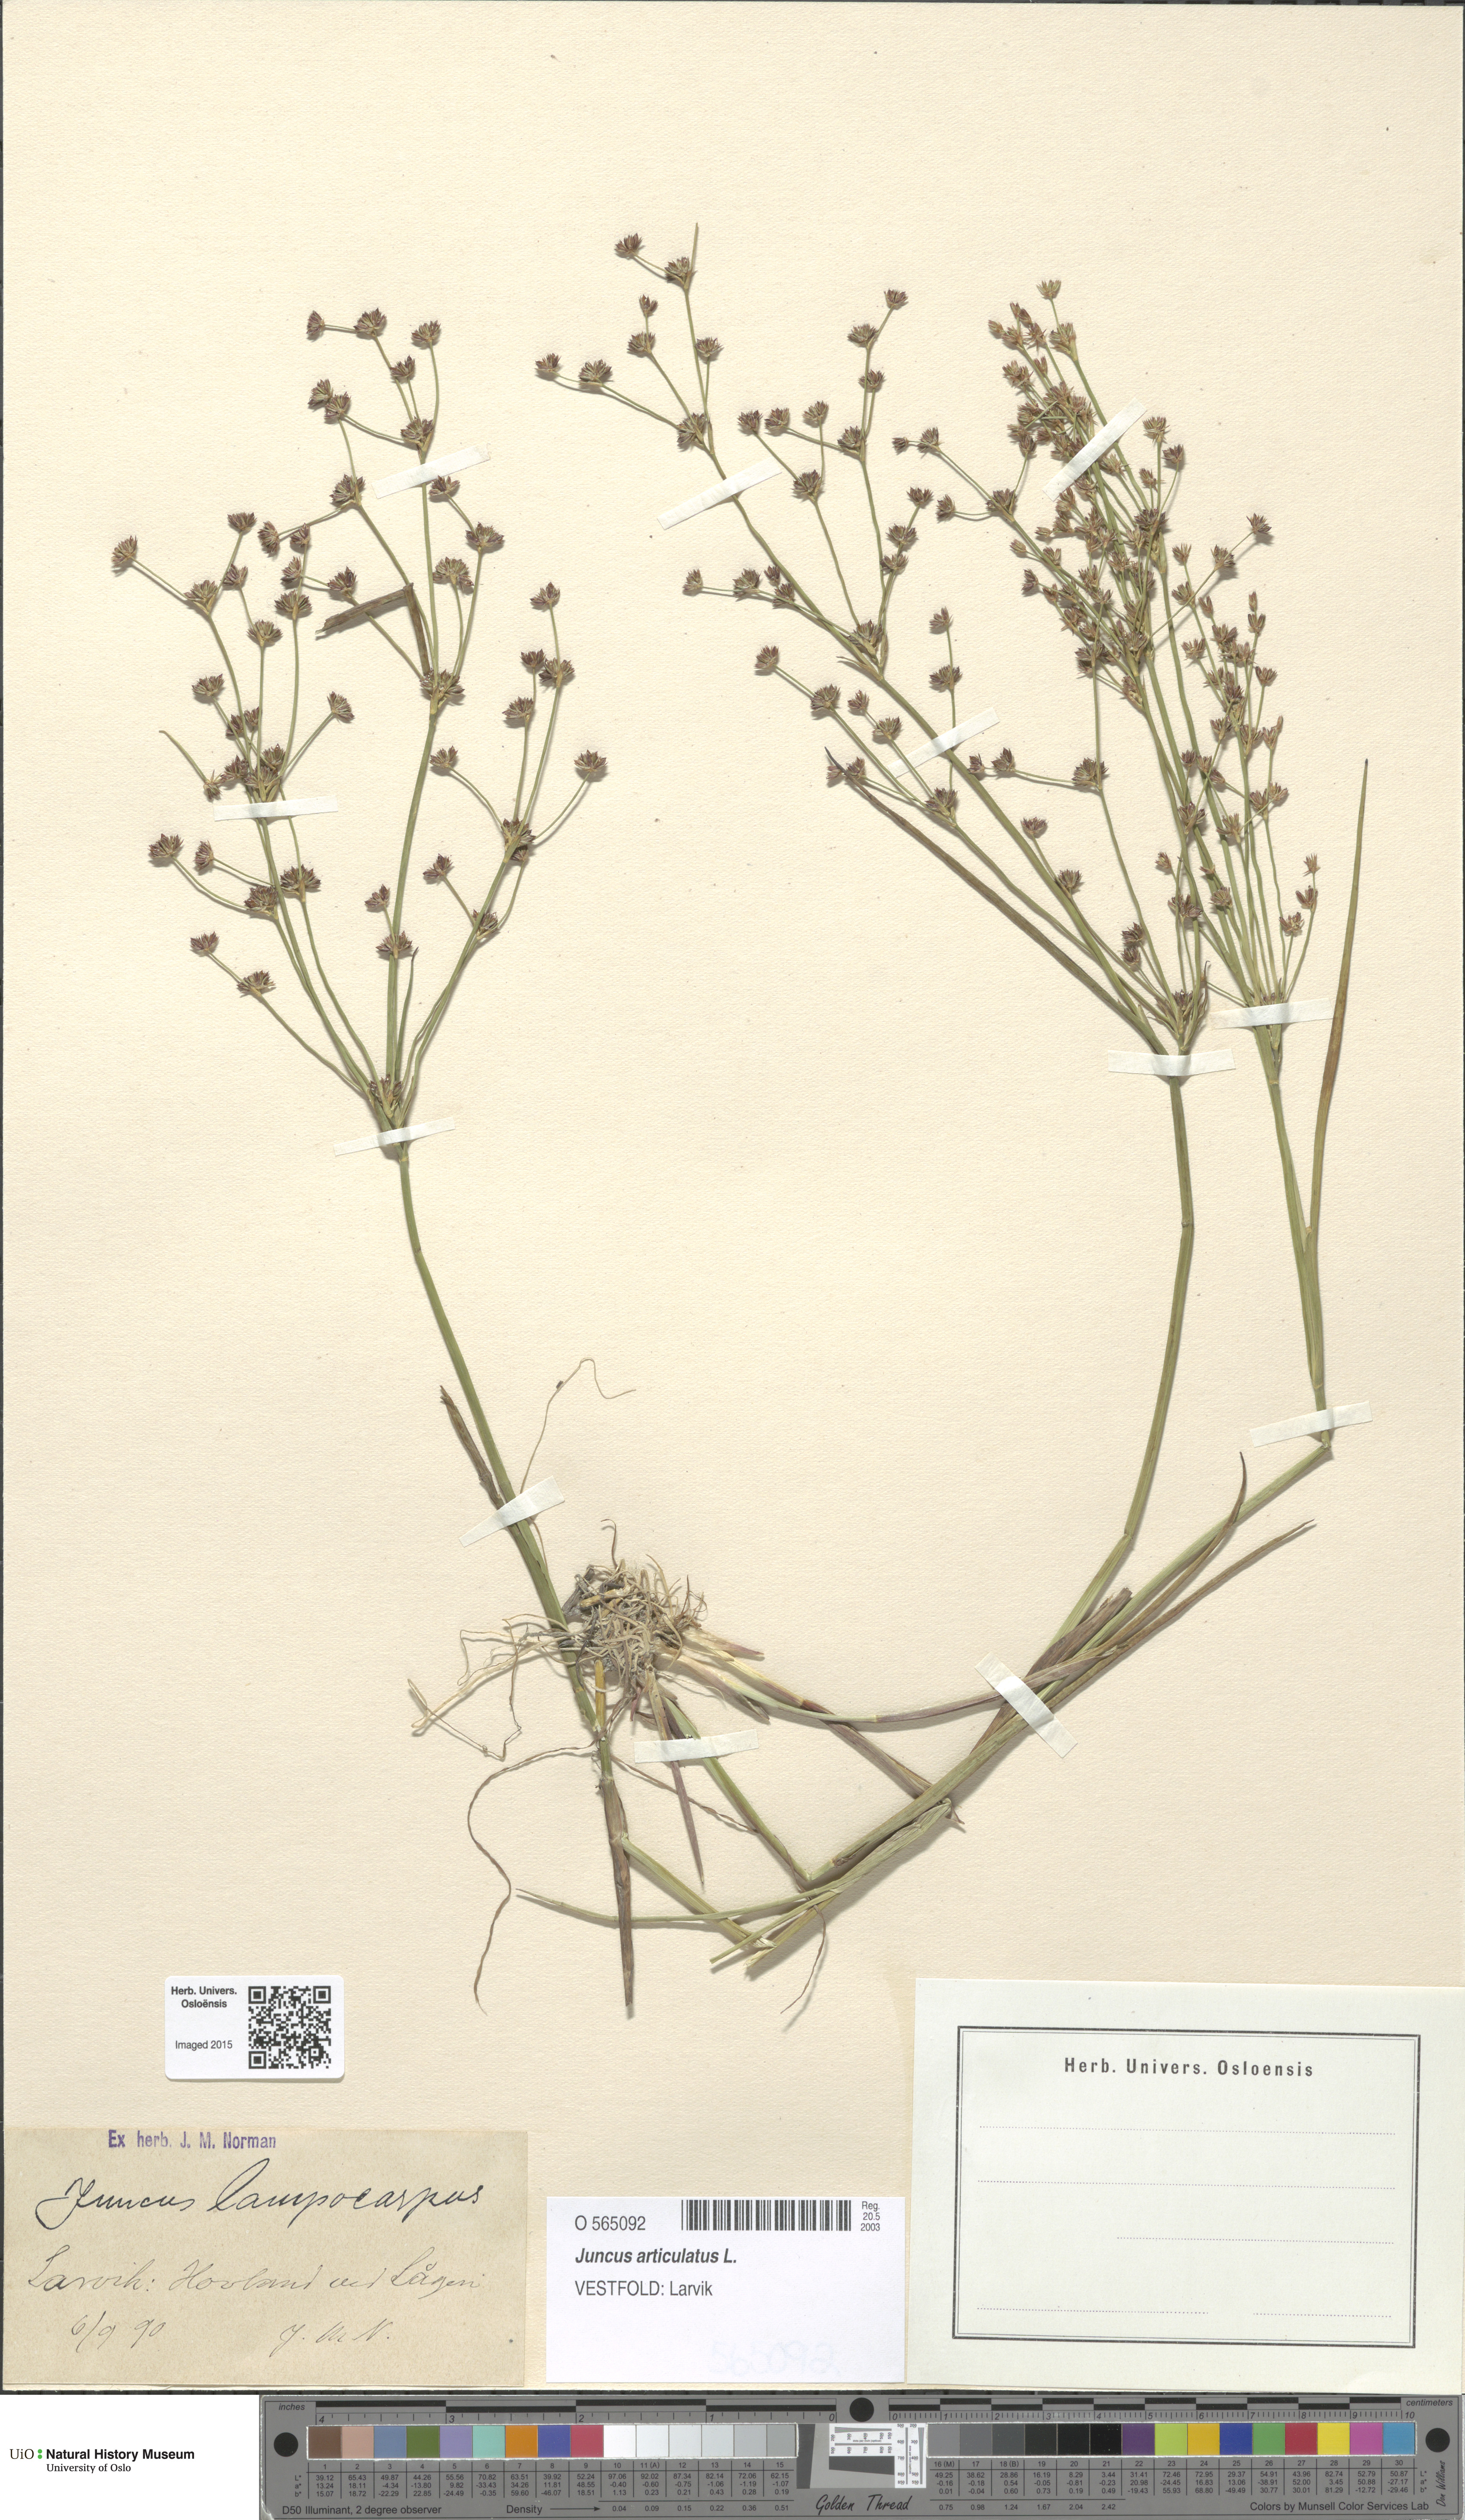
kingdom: Plantae
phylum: Tracheophyta
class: Liliopsida
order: Poales
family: Juncaceae
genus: Juncus
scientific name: Juncus articulatus
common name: Jointed rush
